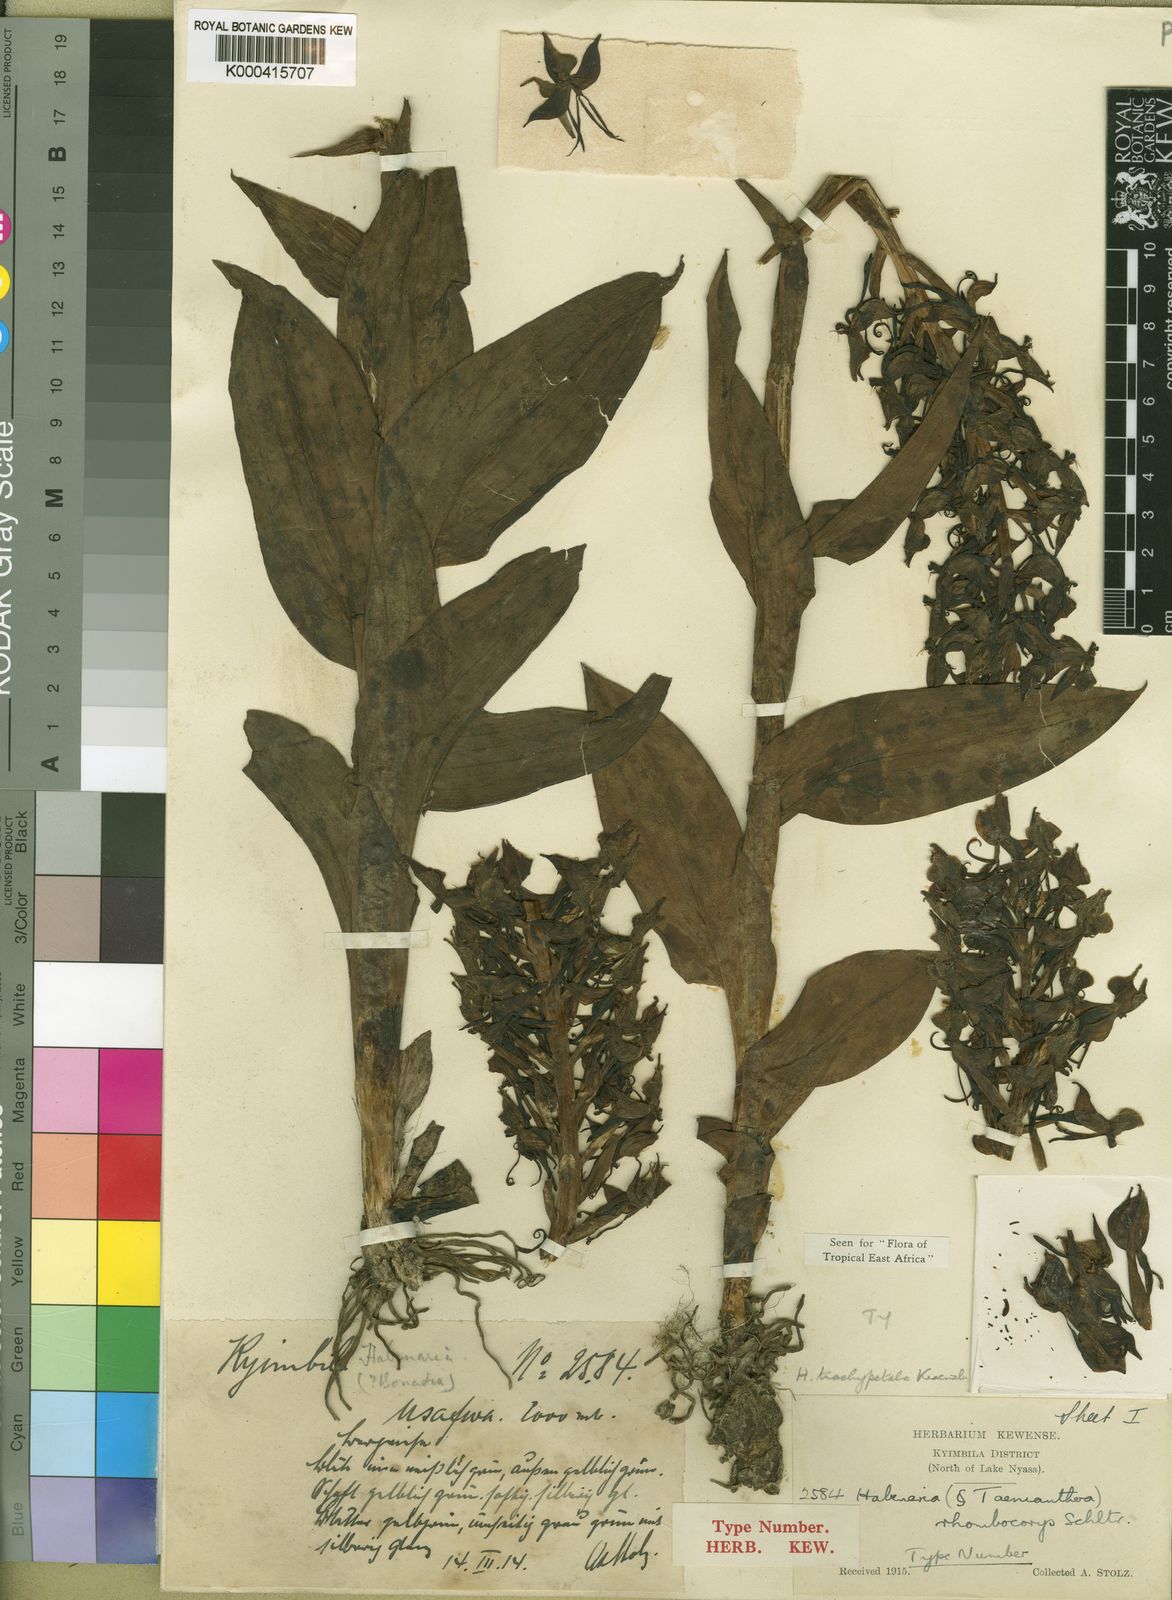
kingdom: Plantae
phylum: Tracheophyta
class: Liliopsida
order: Asparagales
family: Orchidaceae
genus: Habenaria
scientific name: Habenaria trachypetala
